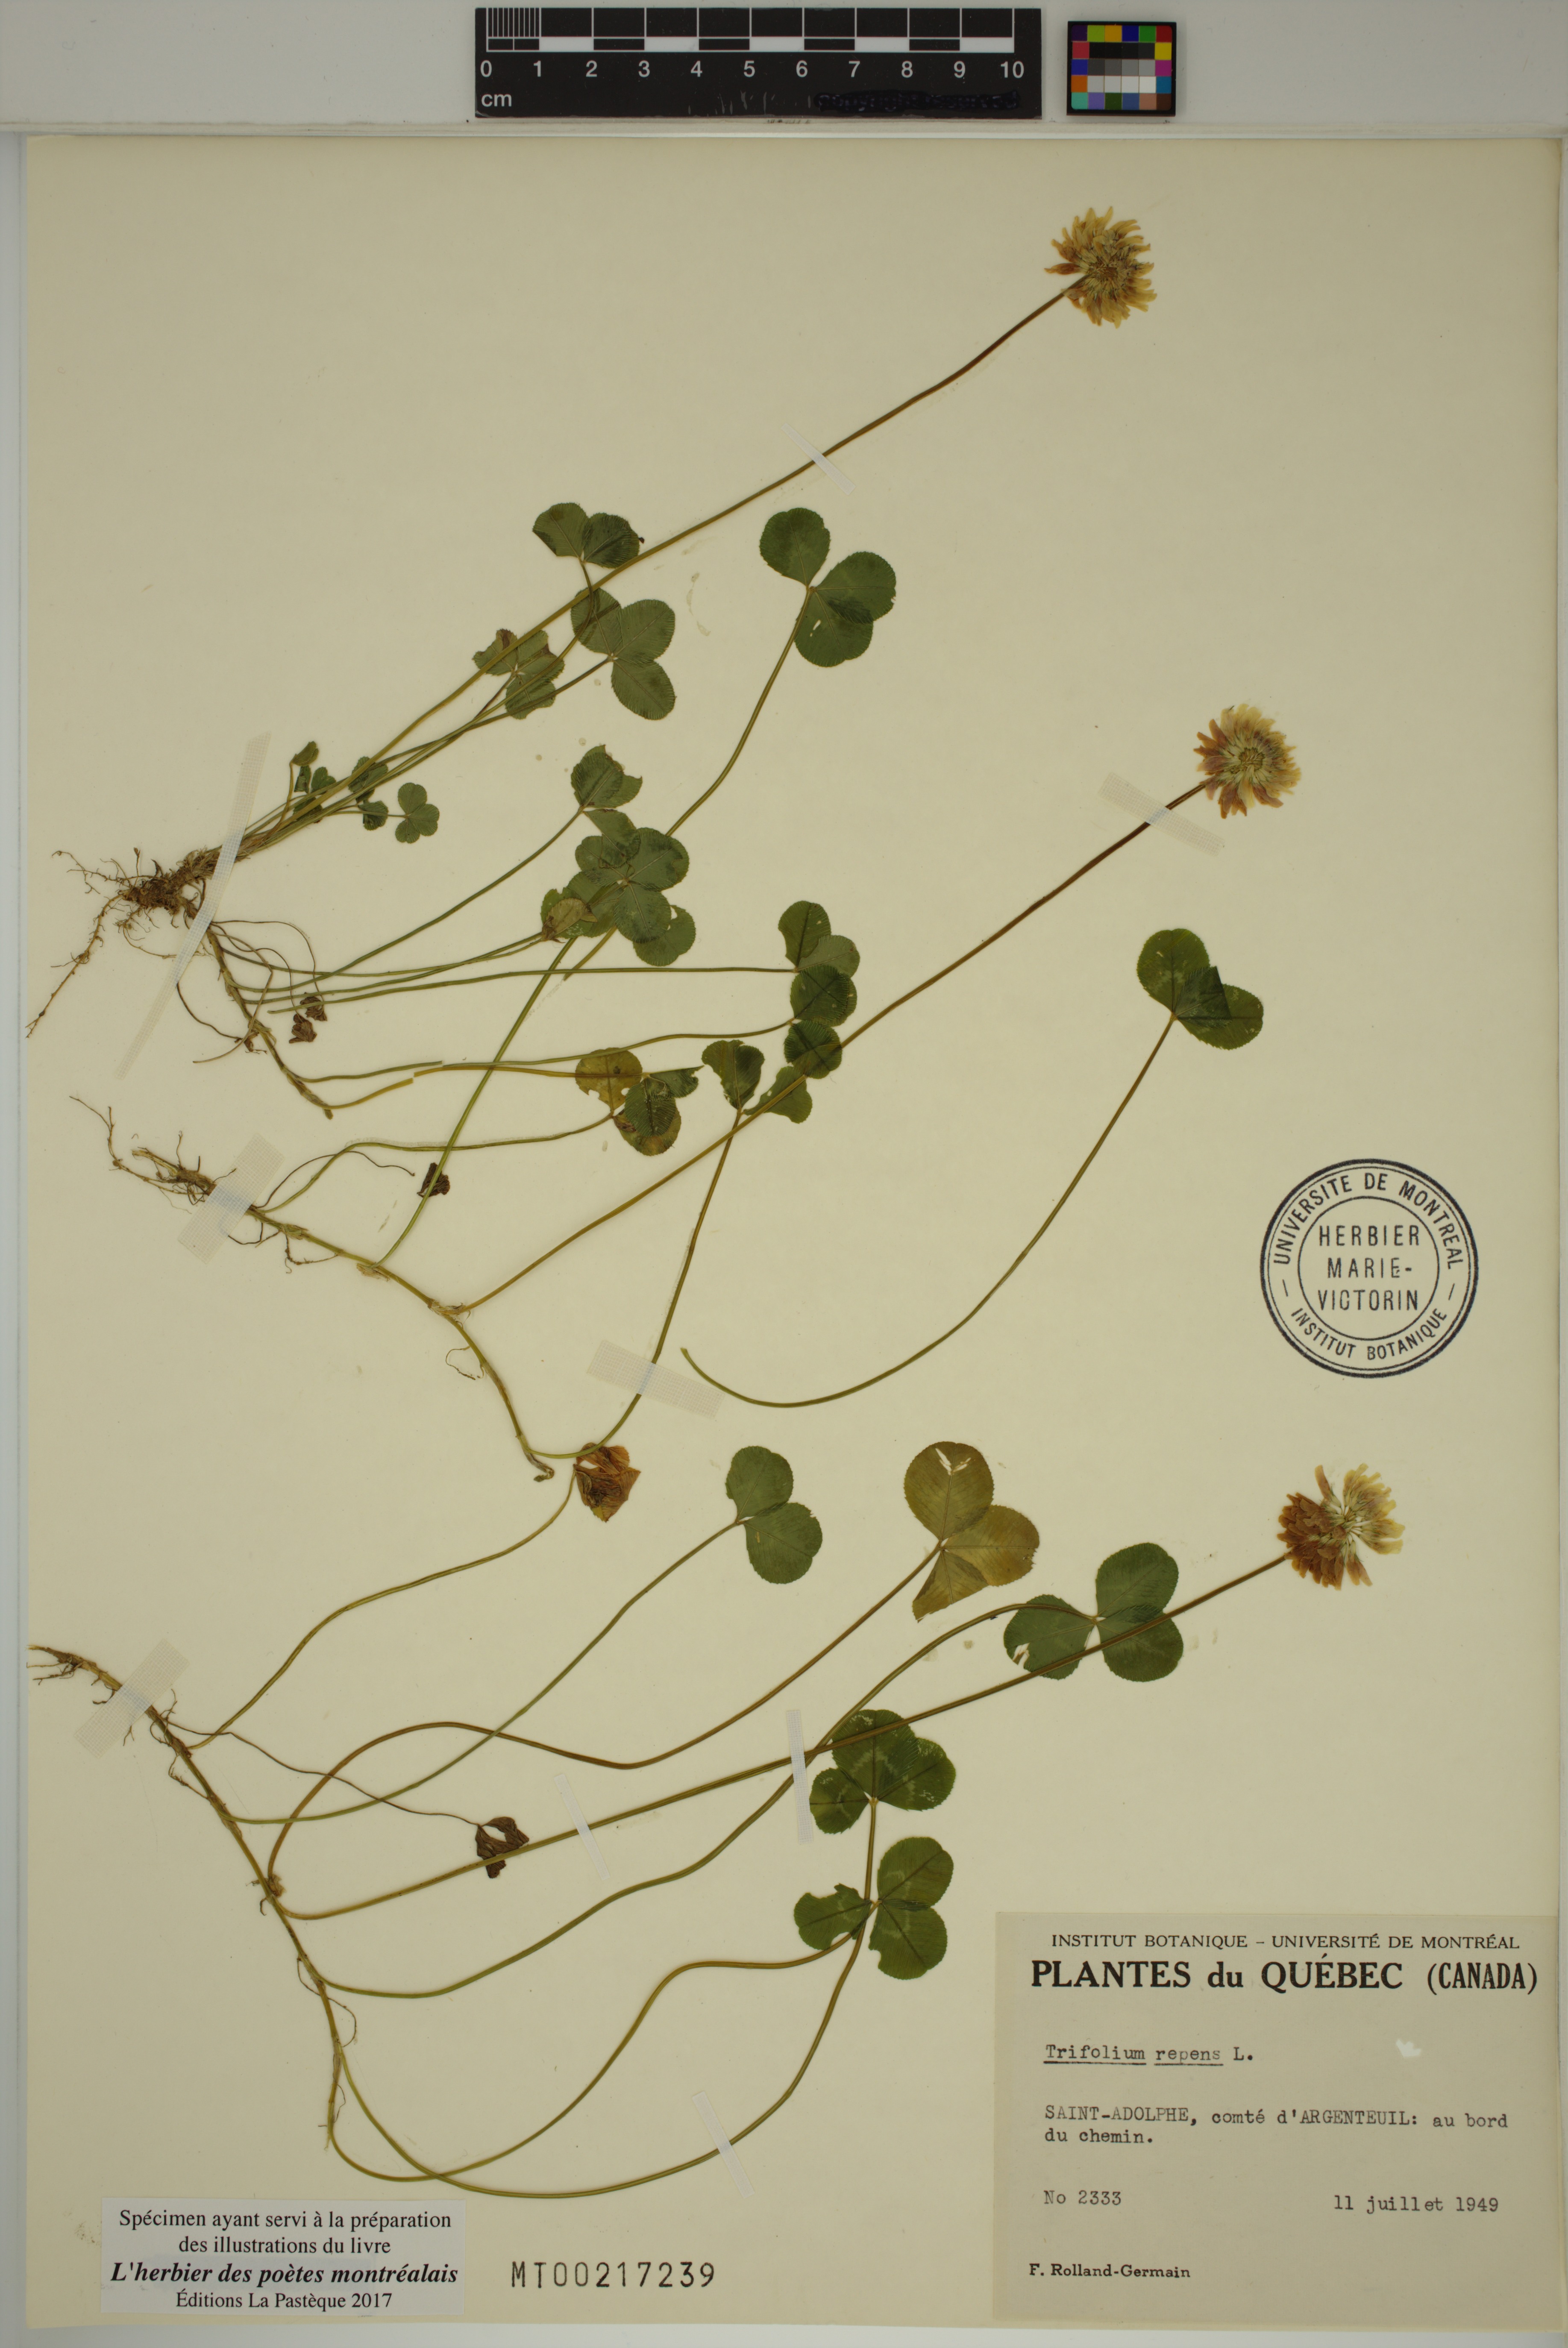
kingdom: Plantae
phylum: Tracheophyta
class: Magnoliopsida
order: Fabales
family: Fabaceae
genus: Trifolium
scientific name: Trifolium repens
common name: White clover
